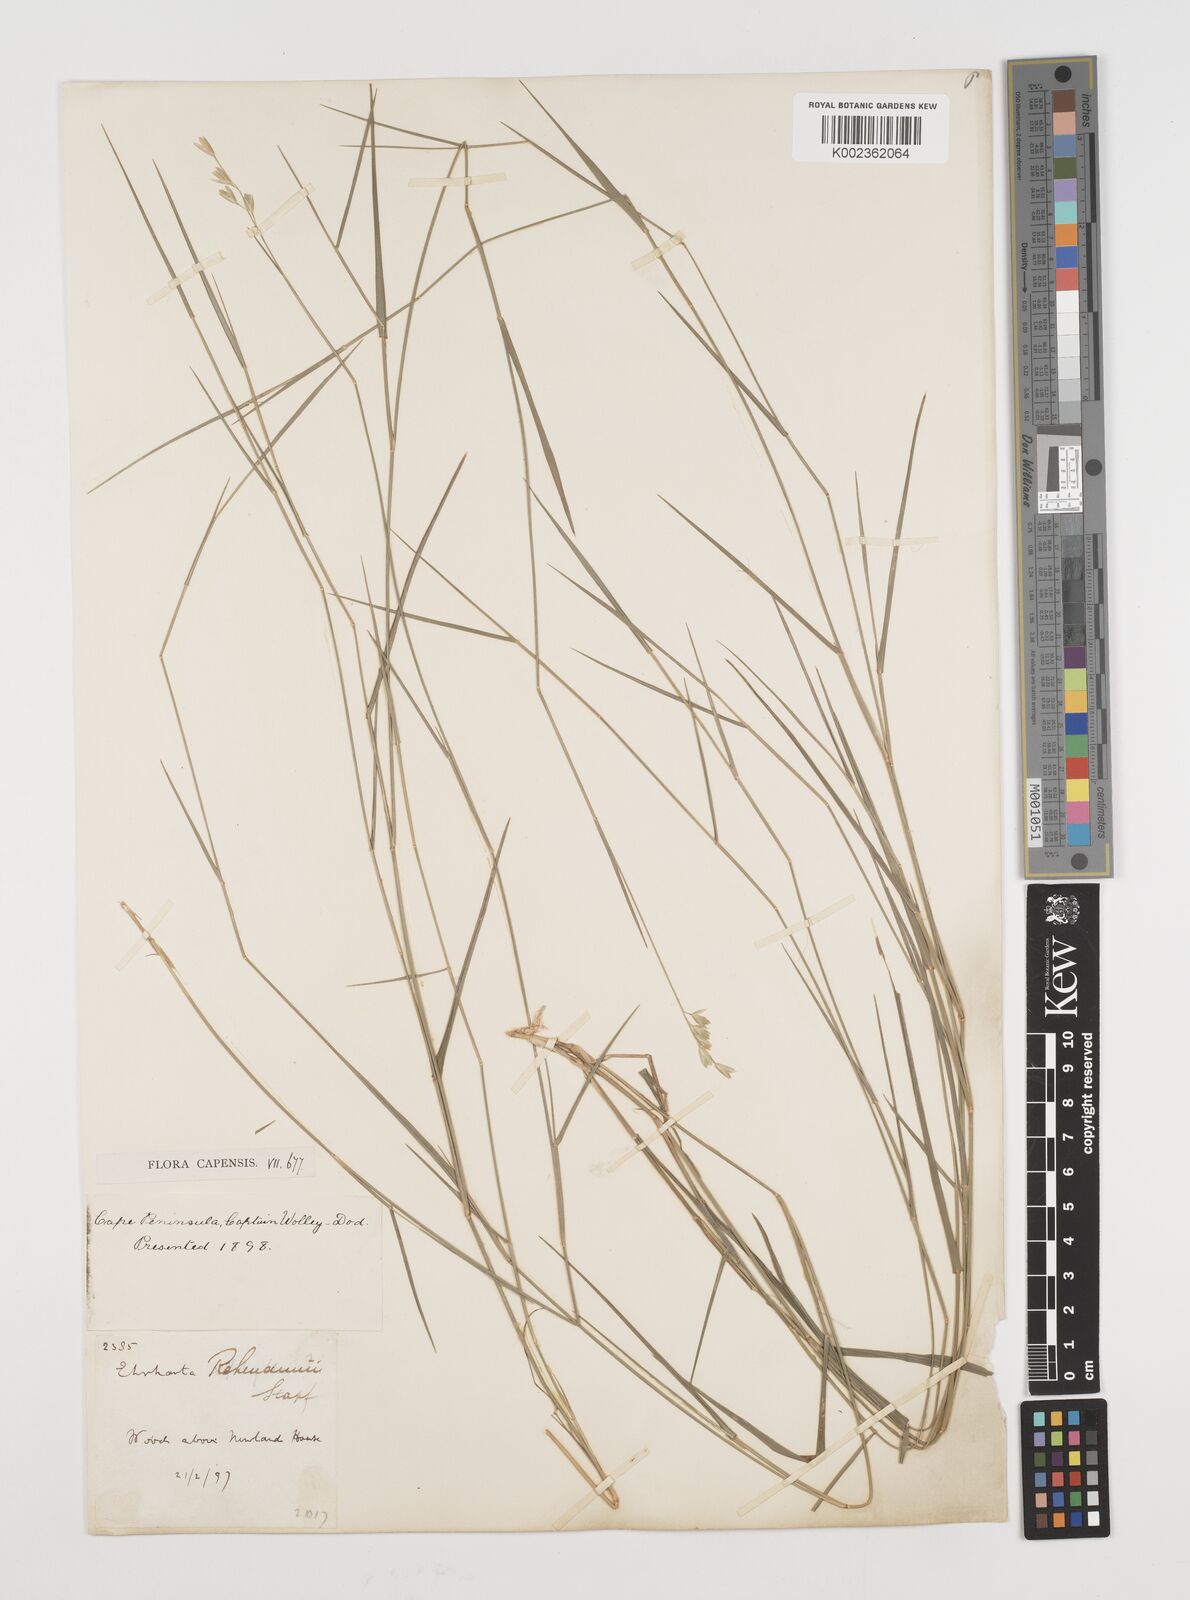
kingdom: Plantae
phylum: Tracheophyta
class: Liliopsida
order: Poales
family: Poaceae
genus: Ehrharta
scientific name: Ehrharta rehmannii
